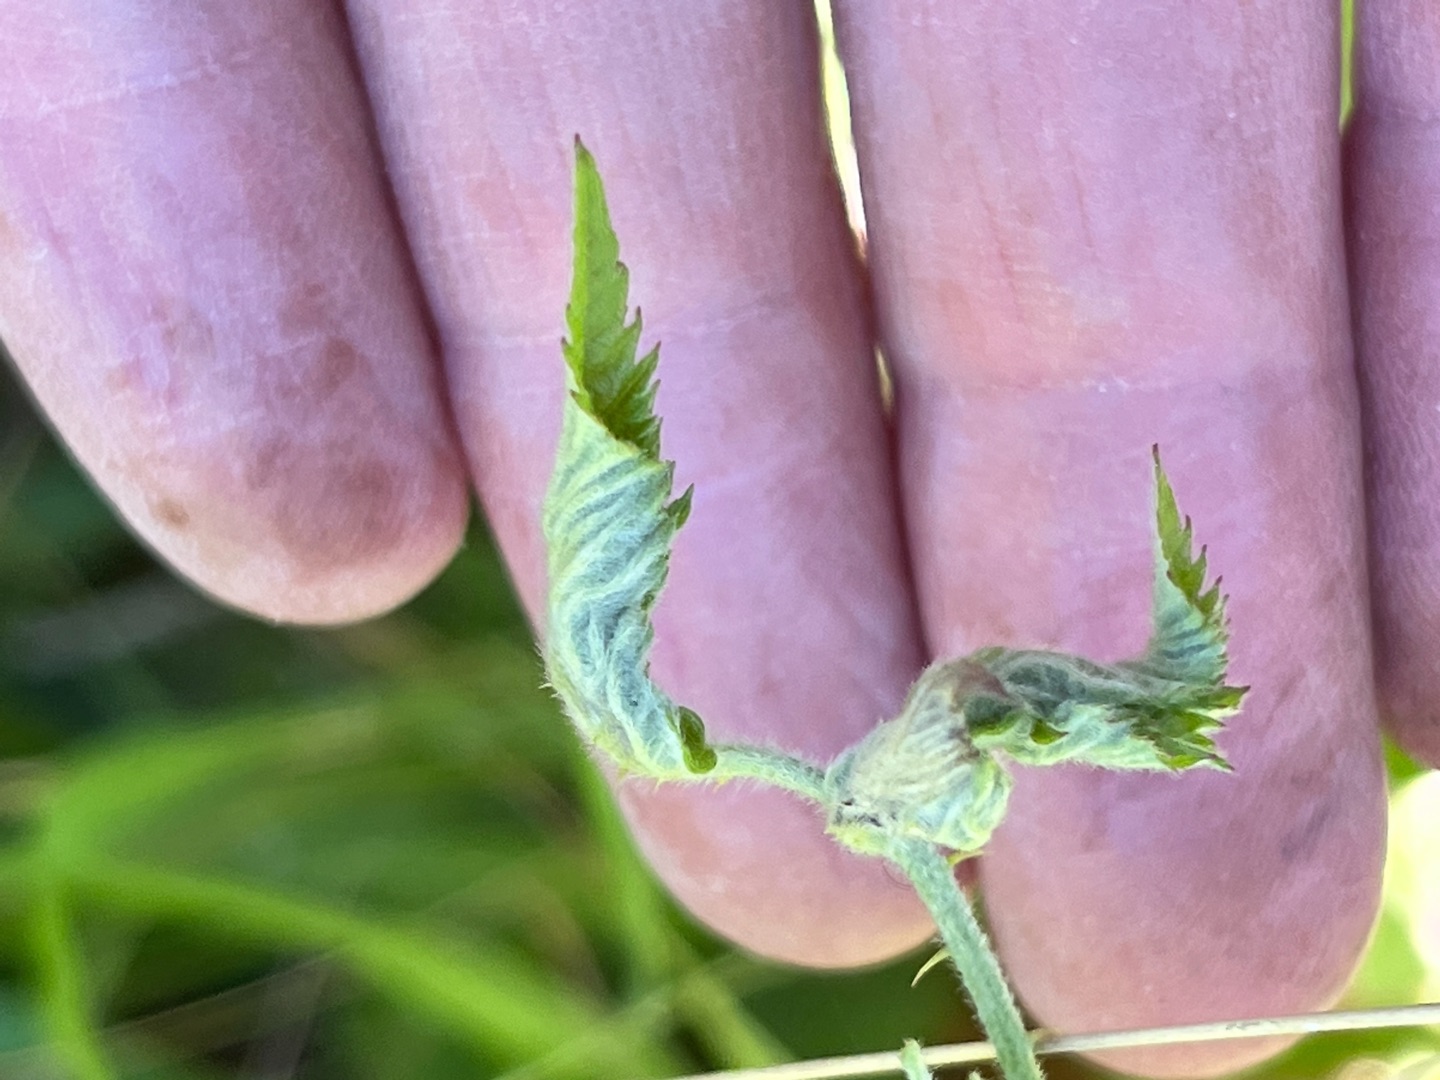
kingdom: Animalia
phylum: Arthropoda
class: Insecta
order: Diptera
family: Cecidomyiidae
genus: Dasineura
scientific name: Dasineura plicatrix
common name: Brombærbladgalmyg
